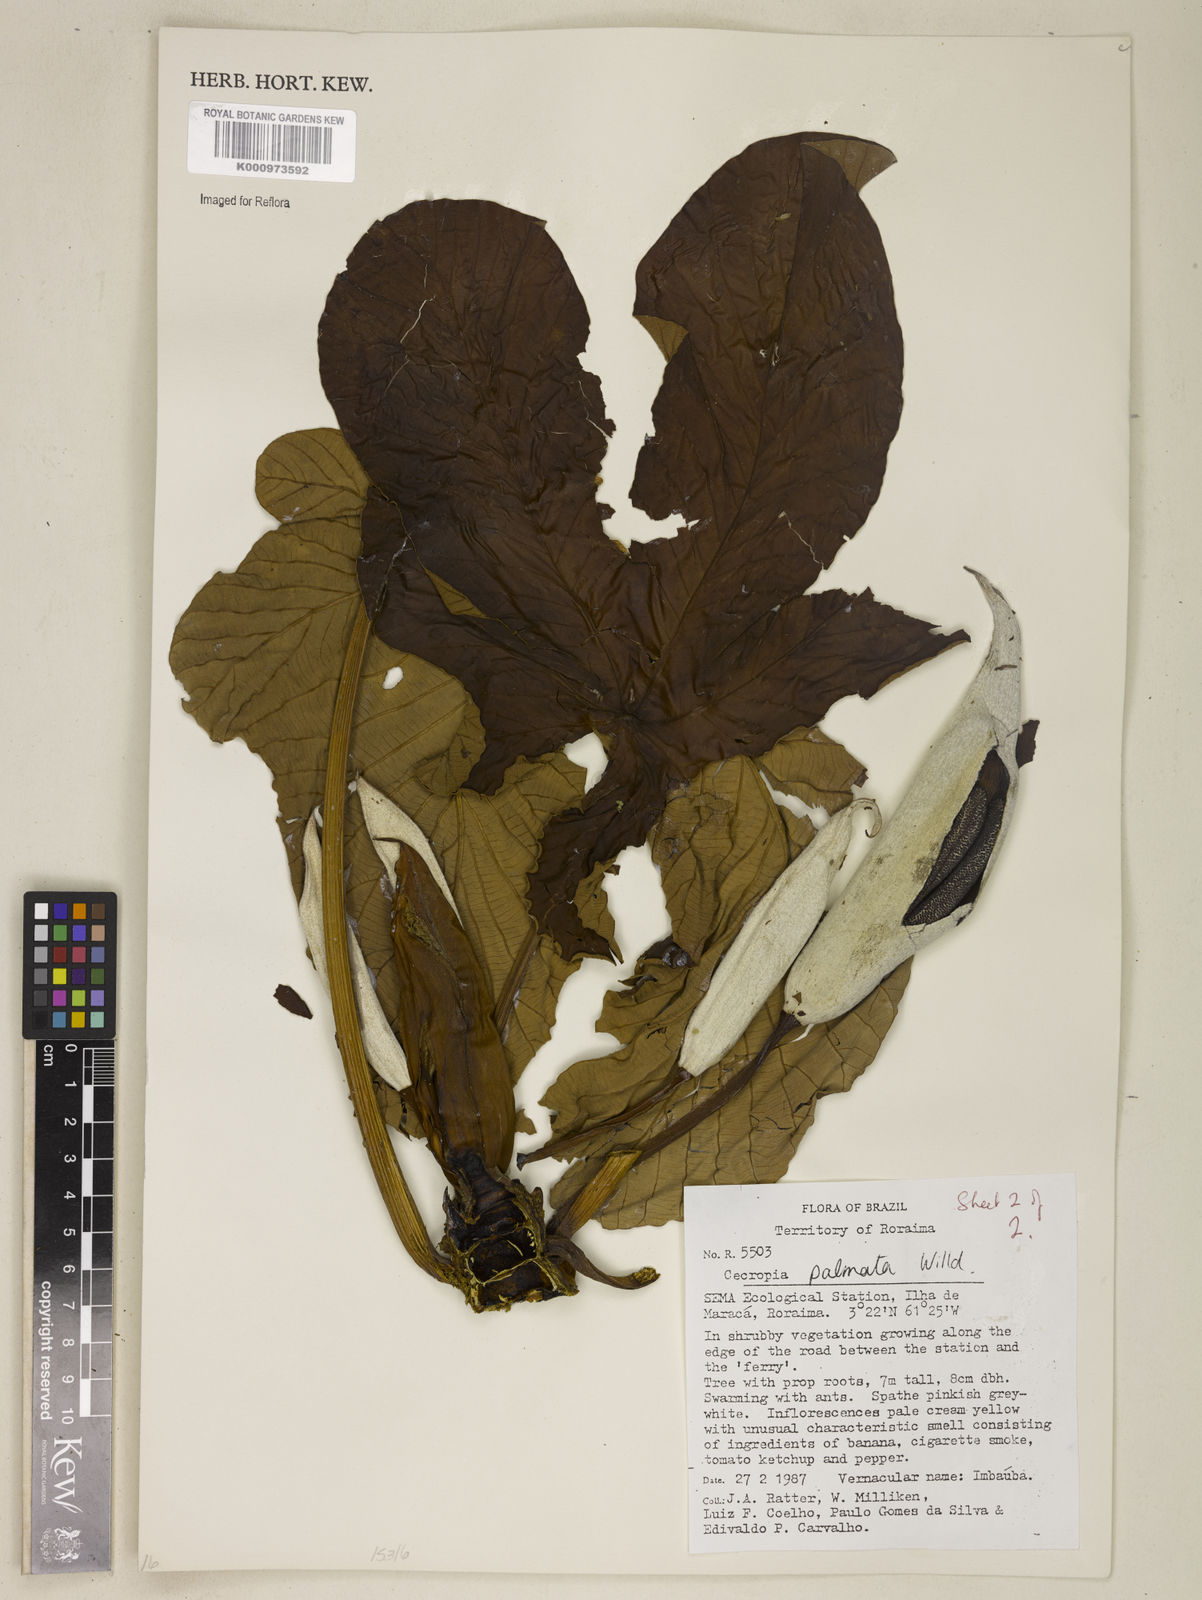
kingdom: Plantae
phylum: Tracheophyta
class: Magnoliopsida
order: Rosales
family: Urticaceae
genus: Cecropia
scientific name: Cecropia palmata
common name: Trumpet tree
